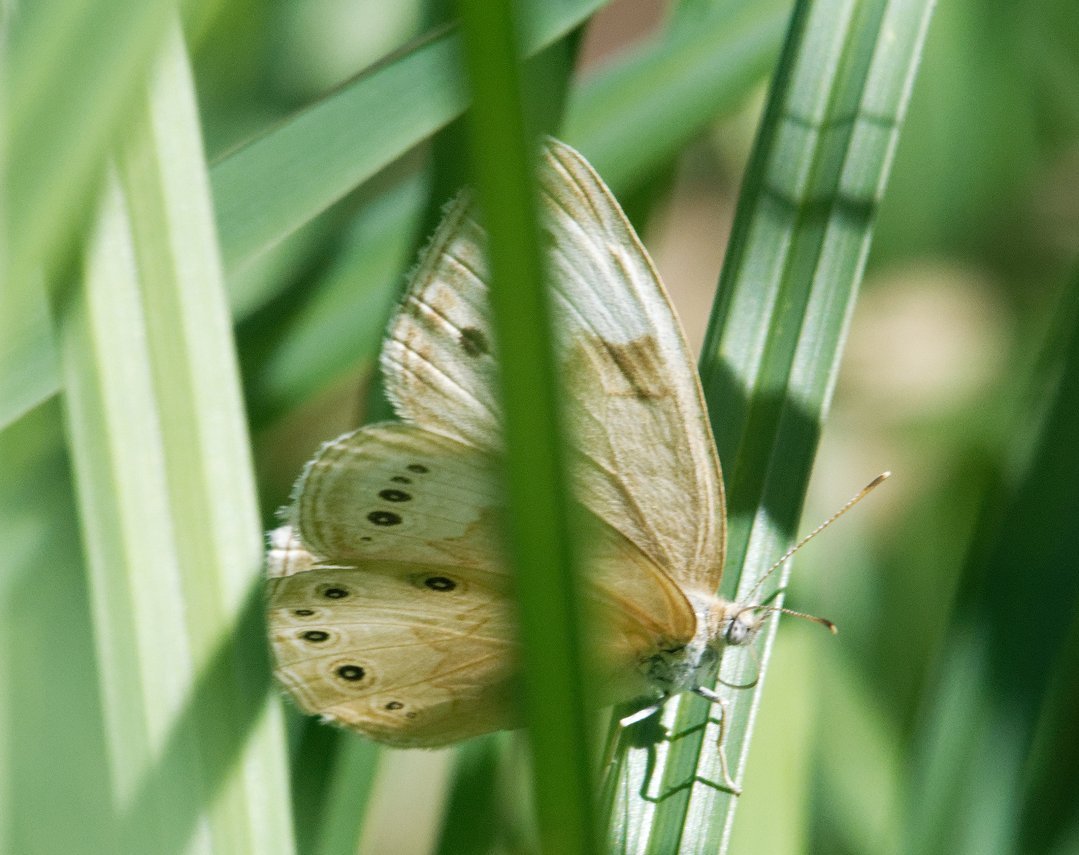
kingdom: Animalia
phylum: Arthropoda
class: Insecta
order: Lepidoptera
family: Nymphalidae
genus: Lethe
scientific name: Lethe eurydice
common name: Eyed Brown
